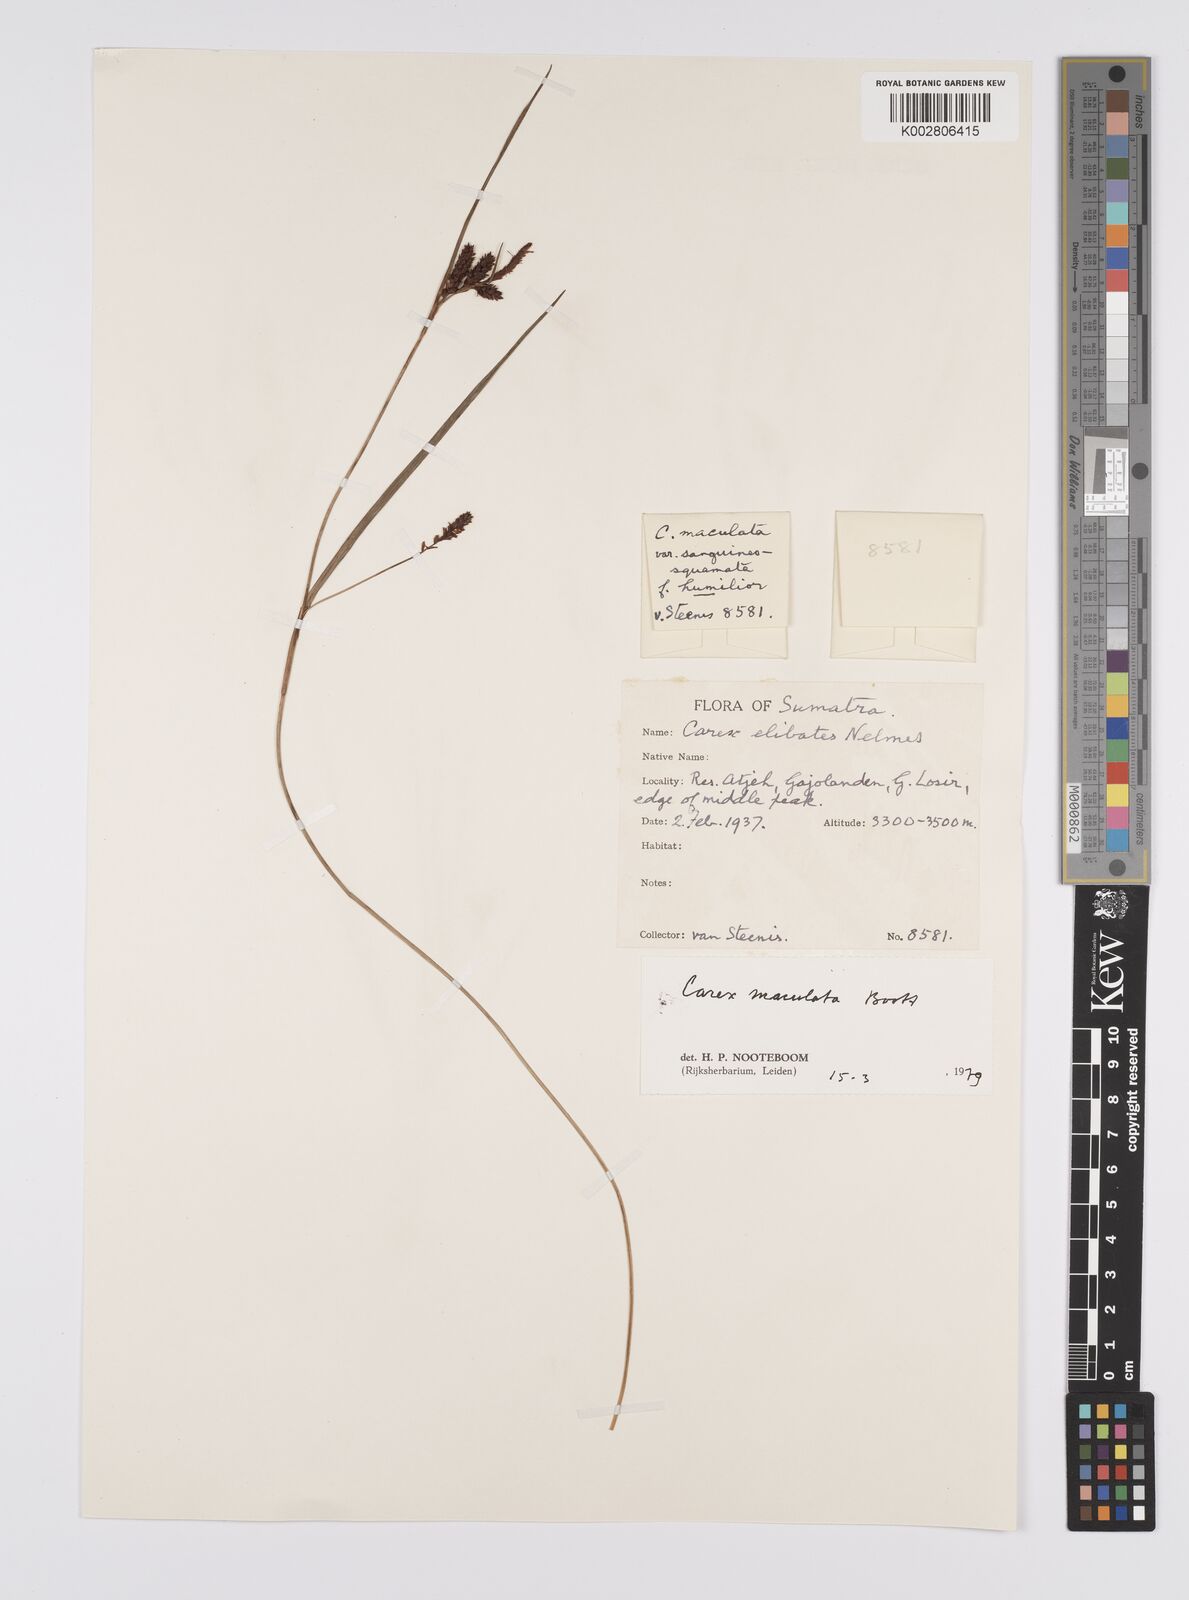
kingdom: Plantae
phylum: Tracheophyta
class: Liliopsida
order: Poales
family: Cyperaceae
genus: Carex
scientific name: Carex maculata
